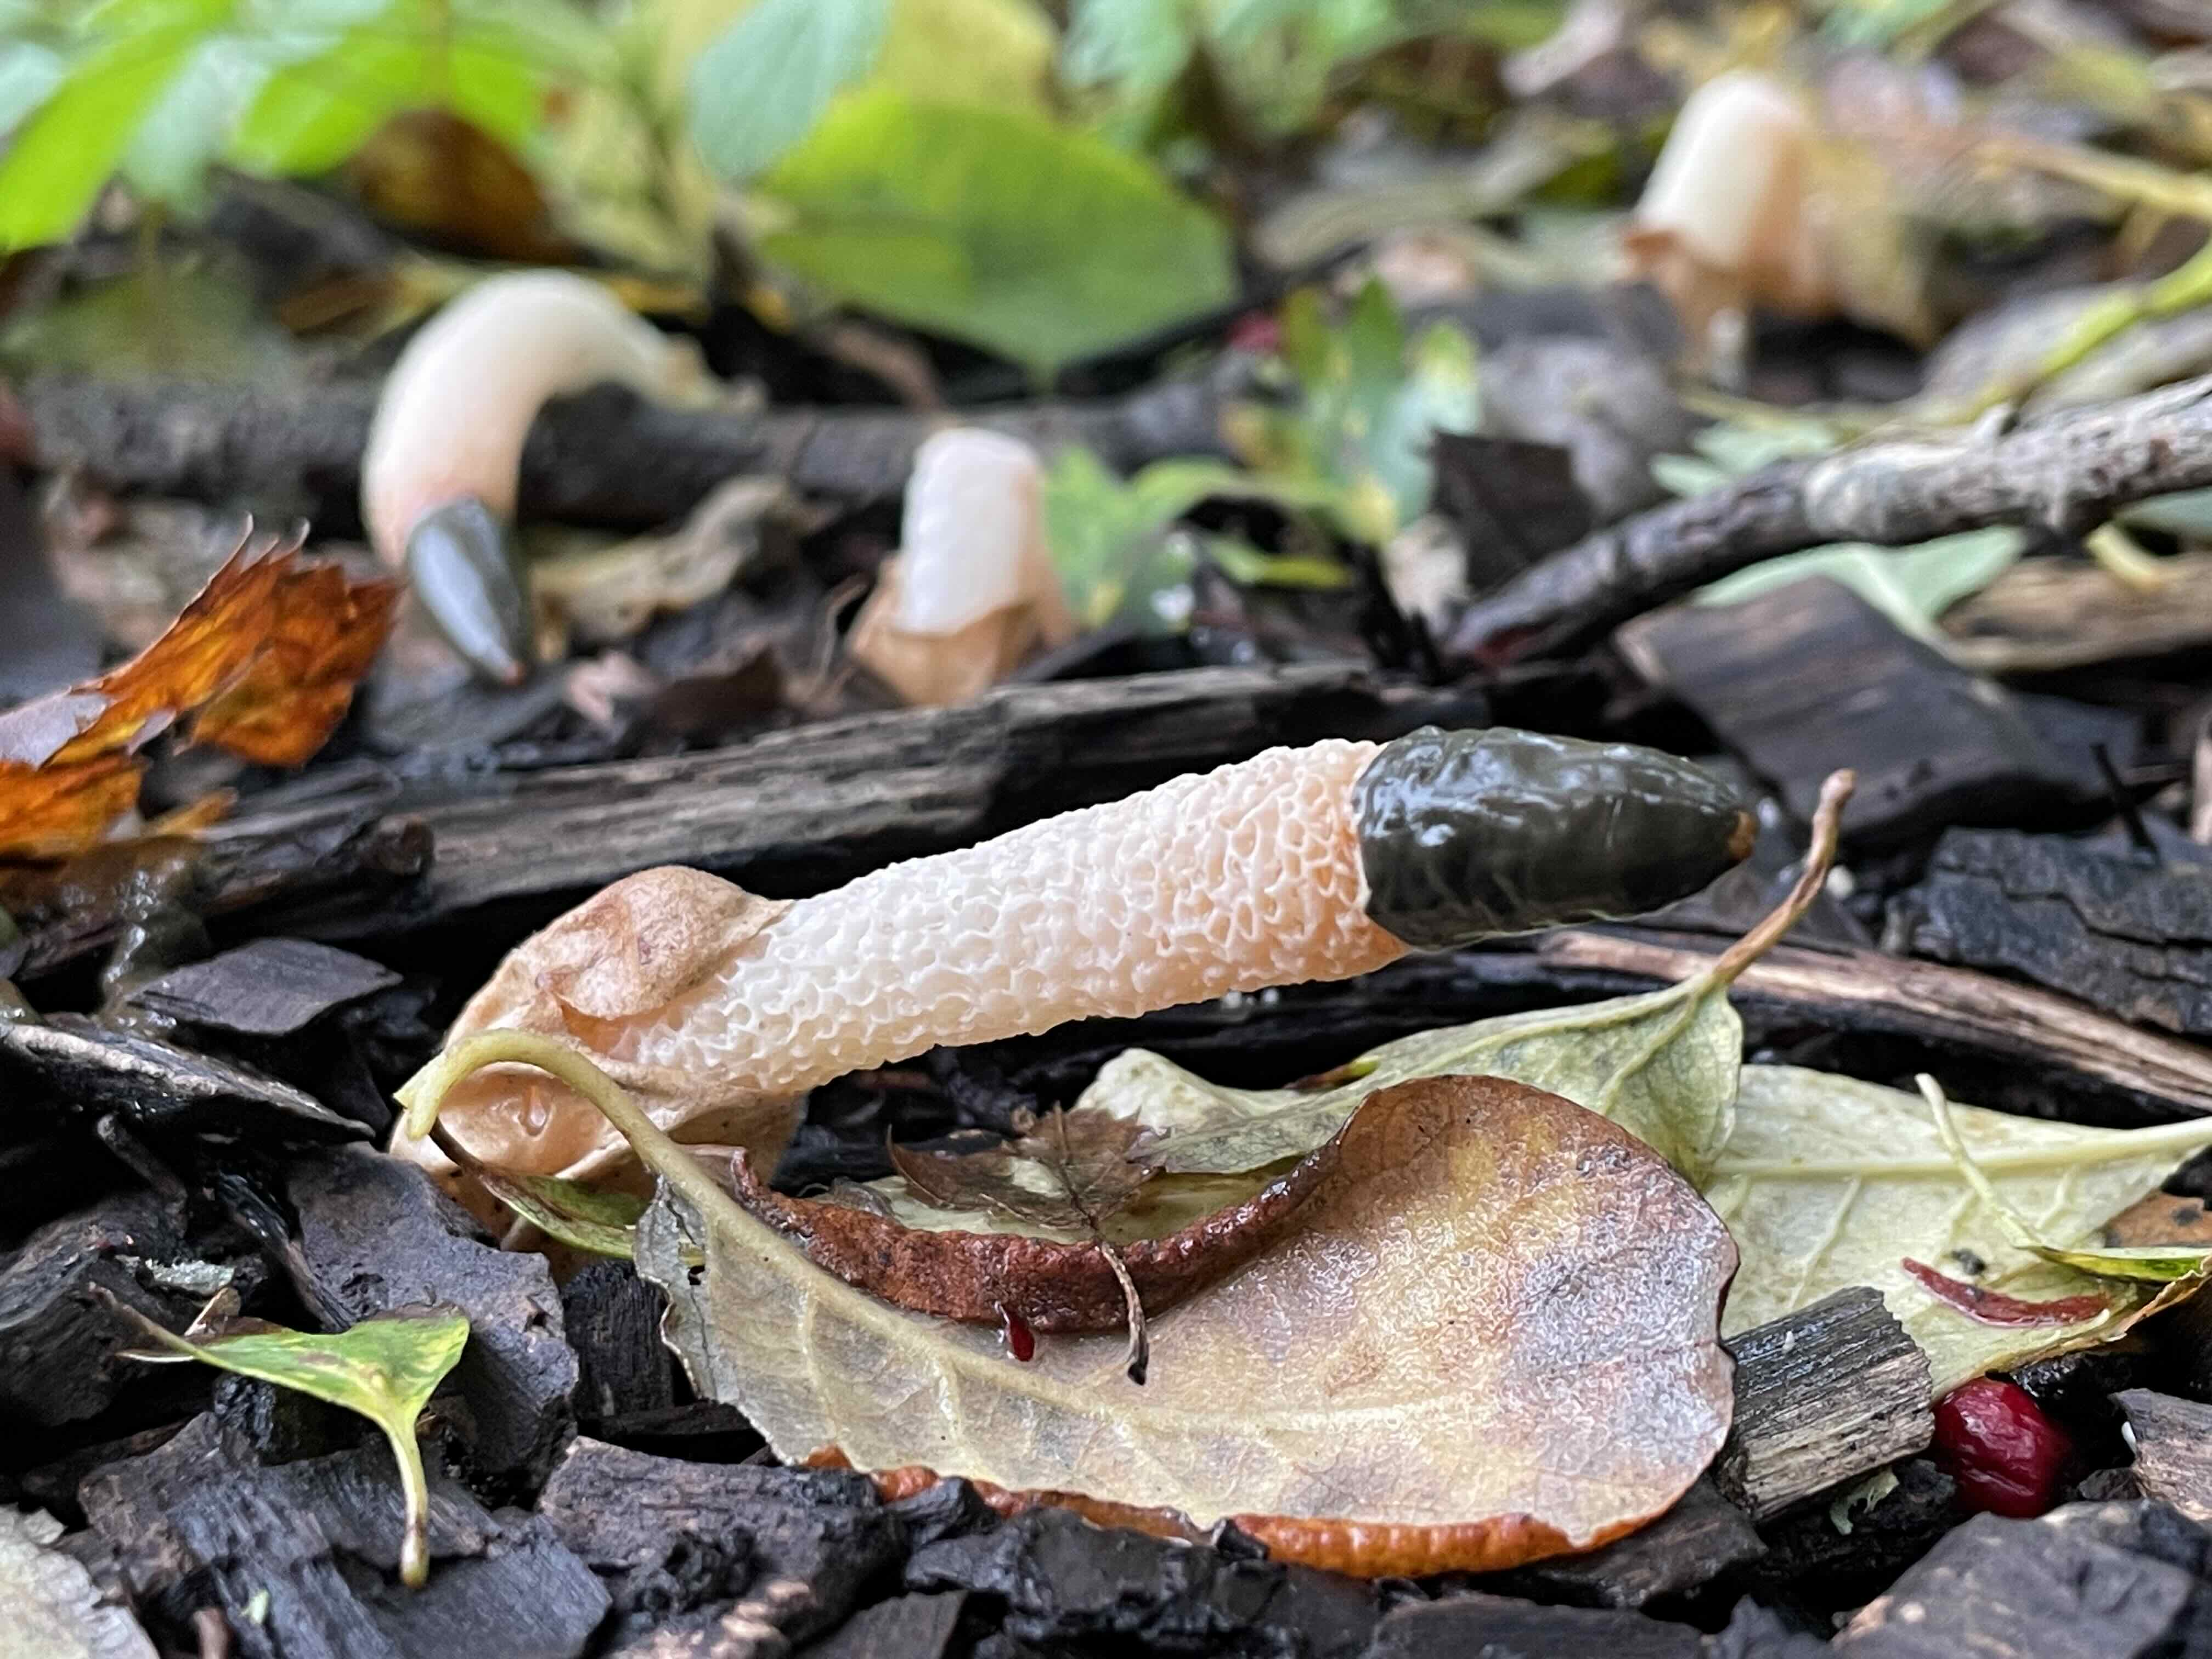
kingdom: Fungi
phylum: Basidiomycota
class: Agaricomycetes
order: Phallales
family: Phallaceae
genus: Mutinus
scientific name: Mutinus caninus
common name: hunde-stinksvamp
